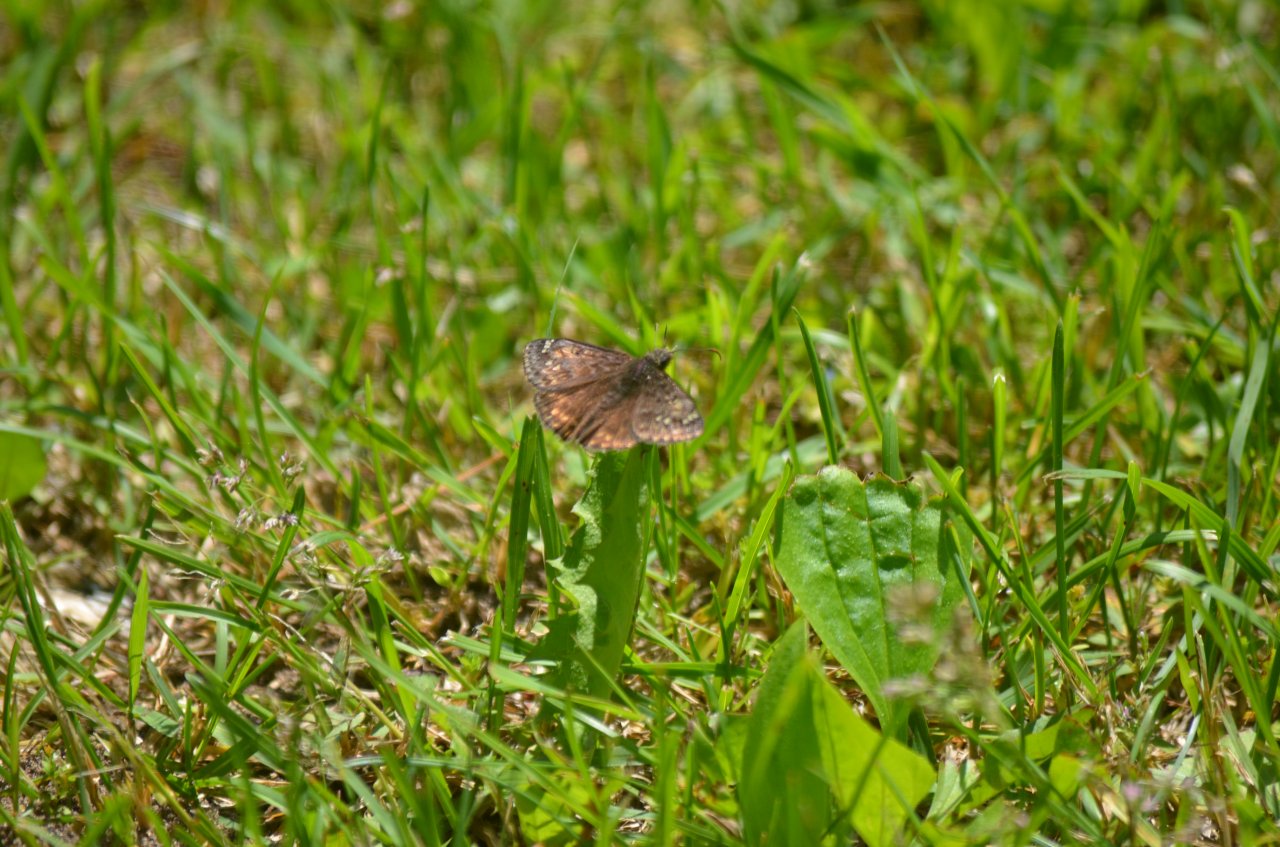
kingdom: Animalia
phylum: Arthropoda
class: Insecta
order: Lepidoptera
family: Hesperiidae
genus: Gesta
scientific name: Gesta
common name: Juvenal's Duskywing
